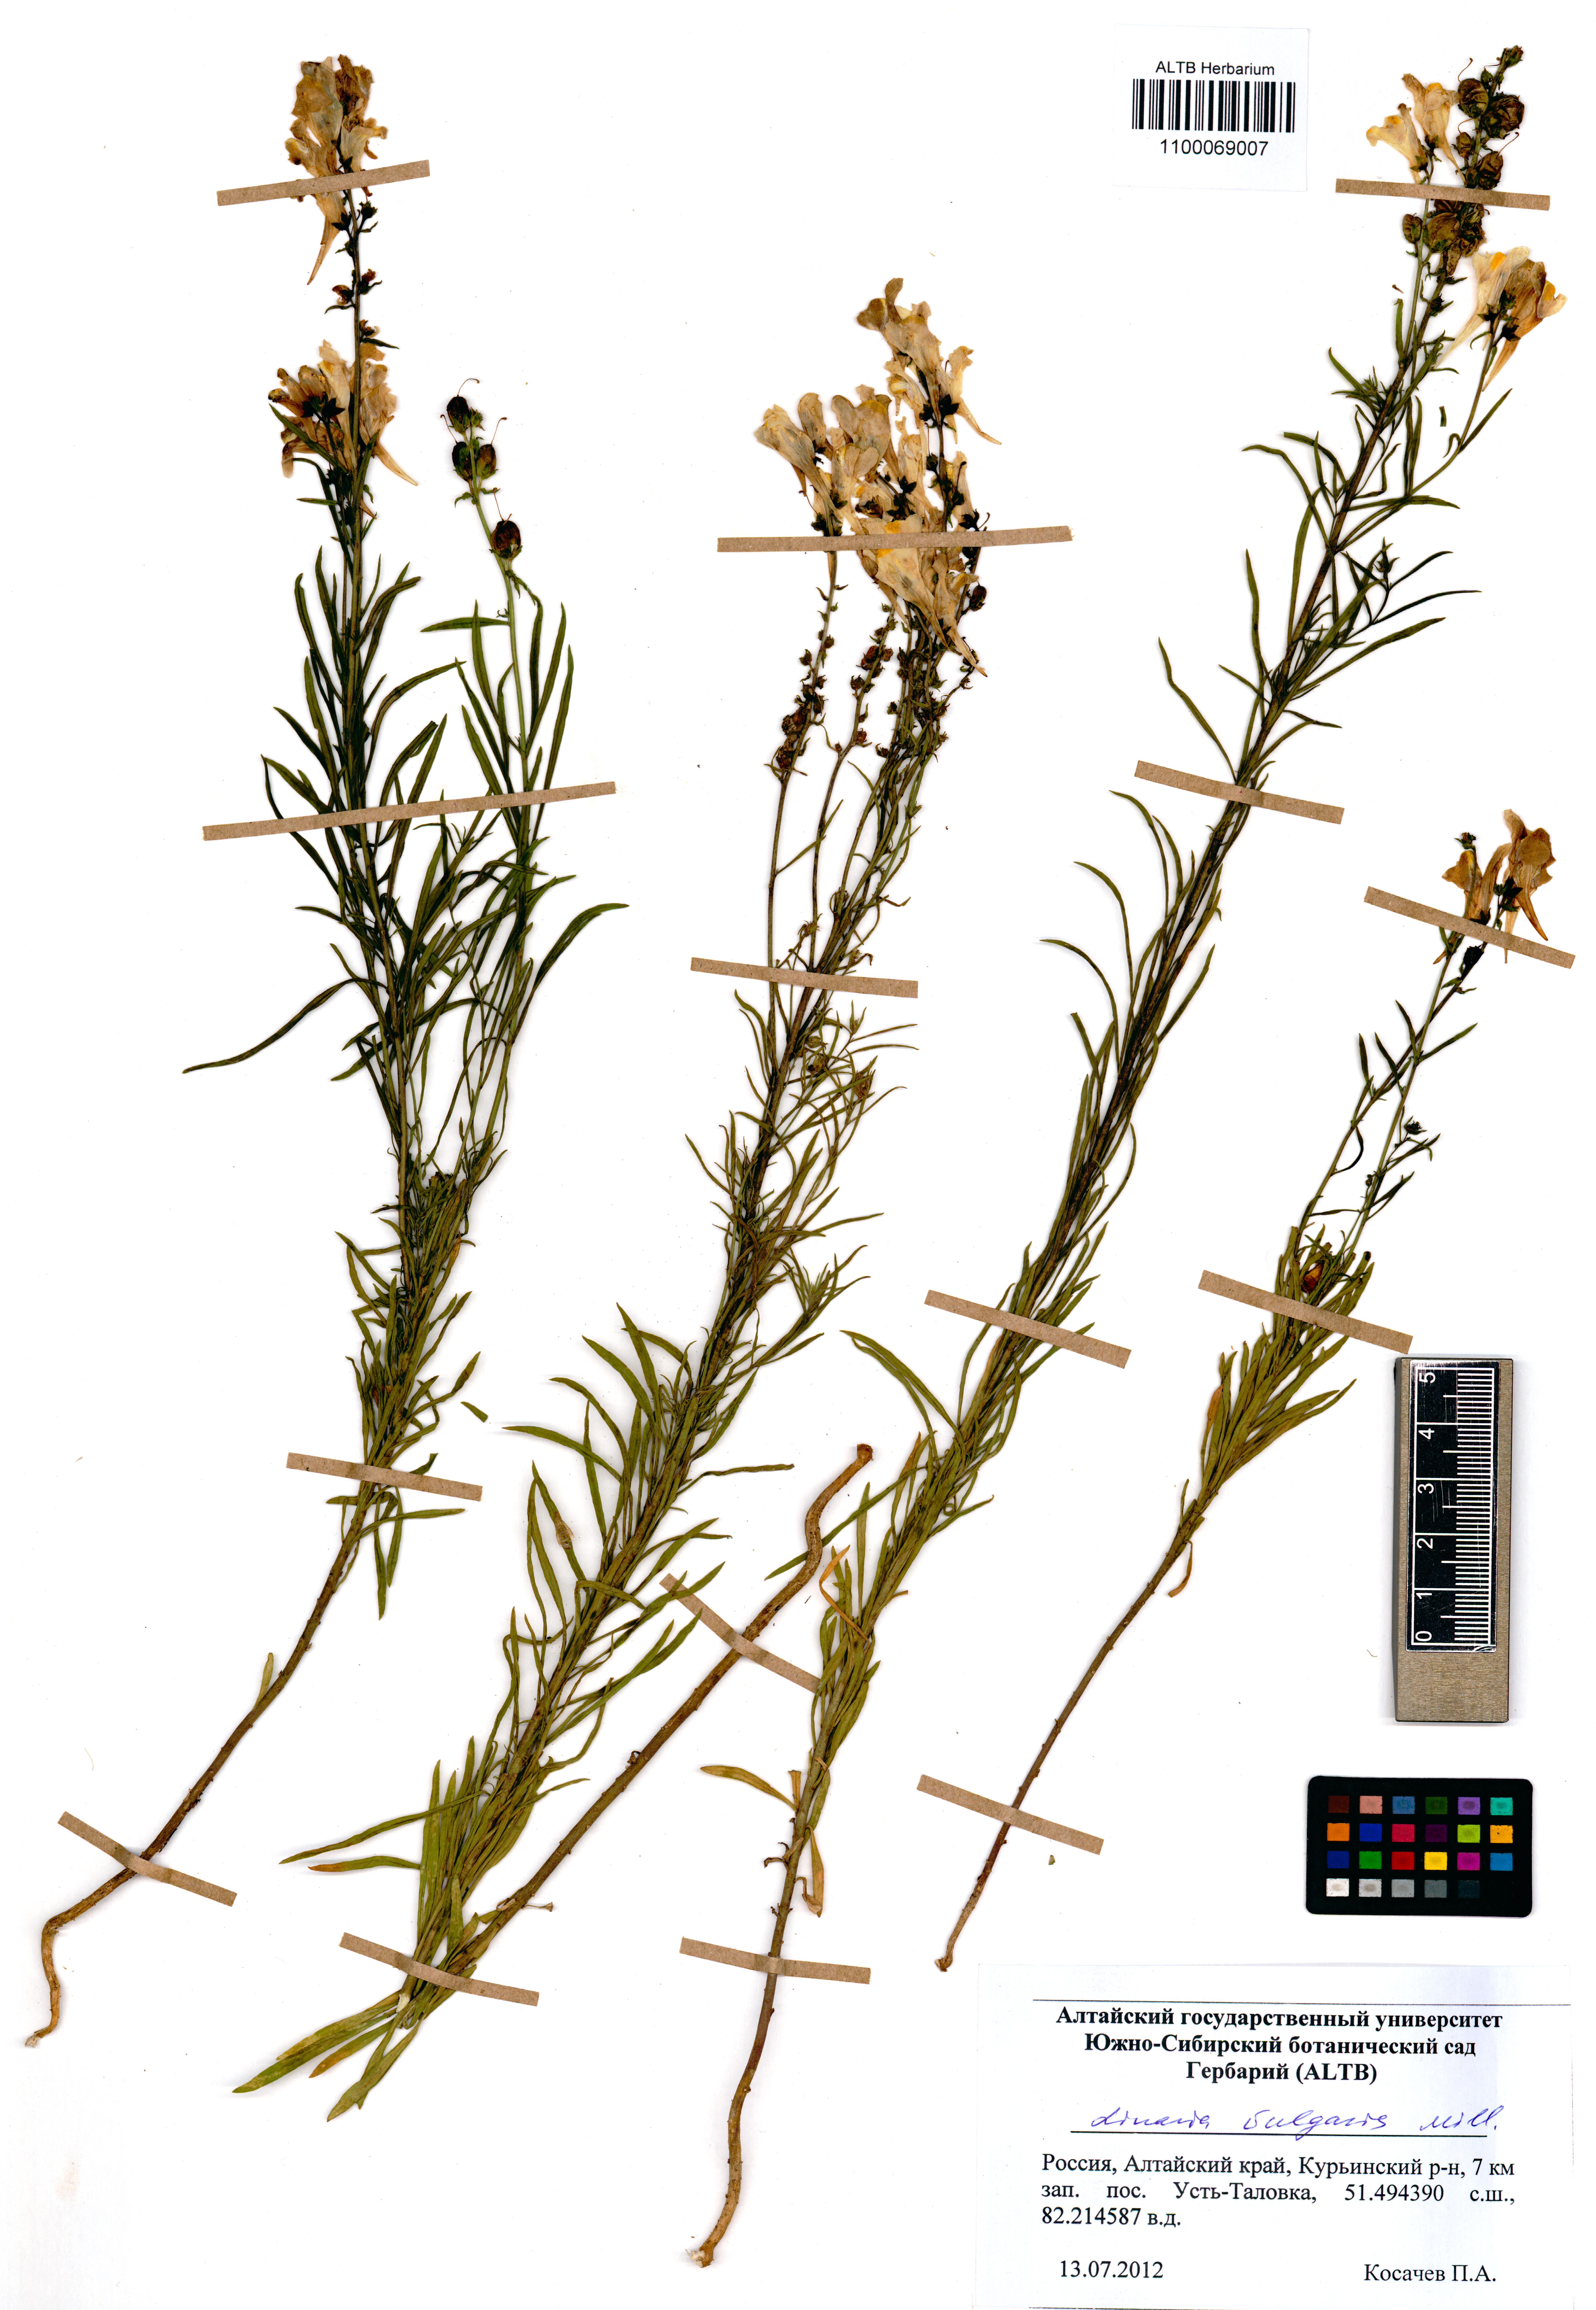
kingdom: Plantae
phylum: Tracheophyta
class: Magnoliopsida
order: Lamiales
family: Plantaginaceae
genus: Linaria
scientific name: Linaria vulgaris
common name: Butter and eggs
